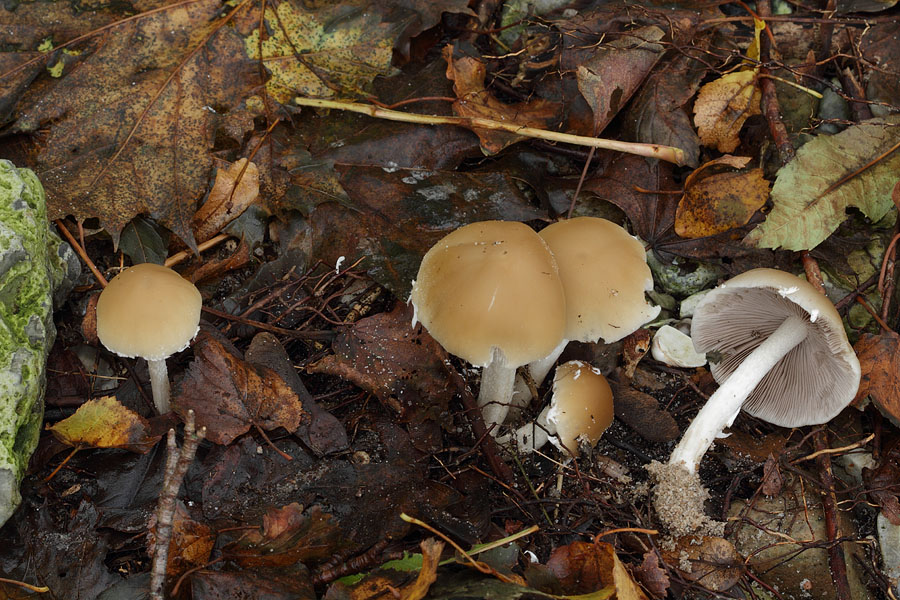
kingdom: Fungi
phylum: Basidiomycota
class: Agaricomycetes
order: Agaricales
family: Psathyrellaceae
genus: Candolleomyces
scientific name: Candolleomyces candolleanus
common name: Candolles mørkhat
